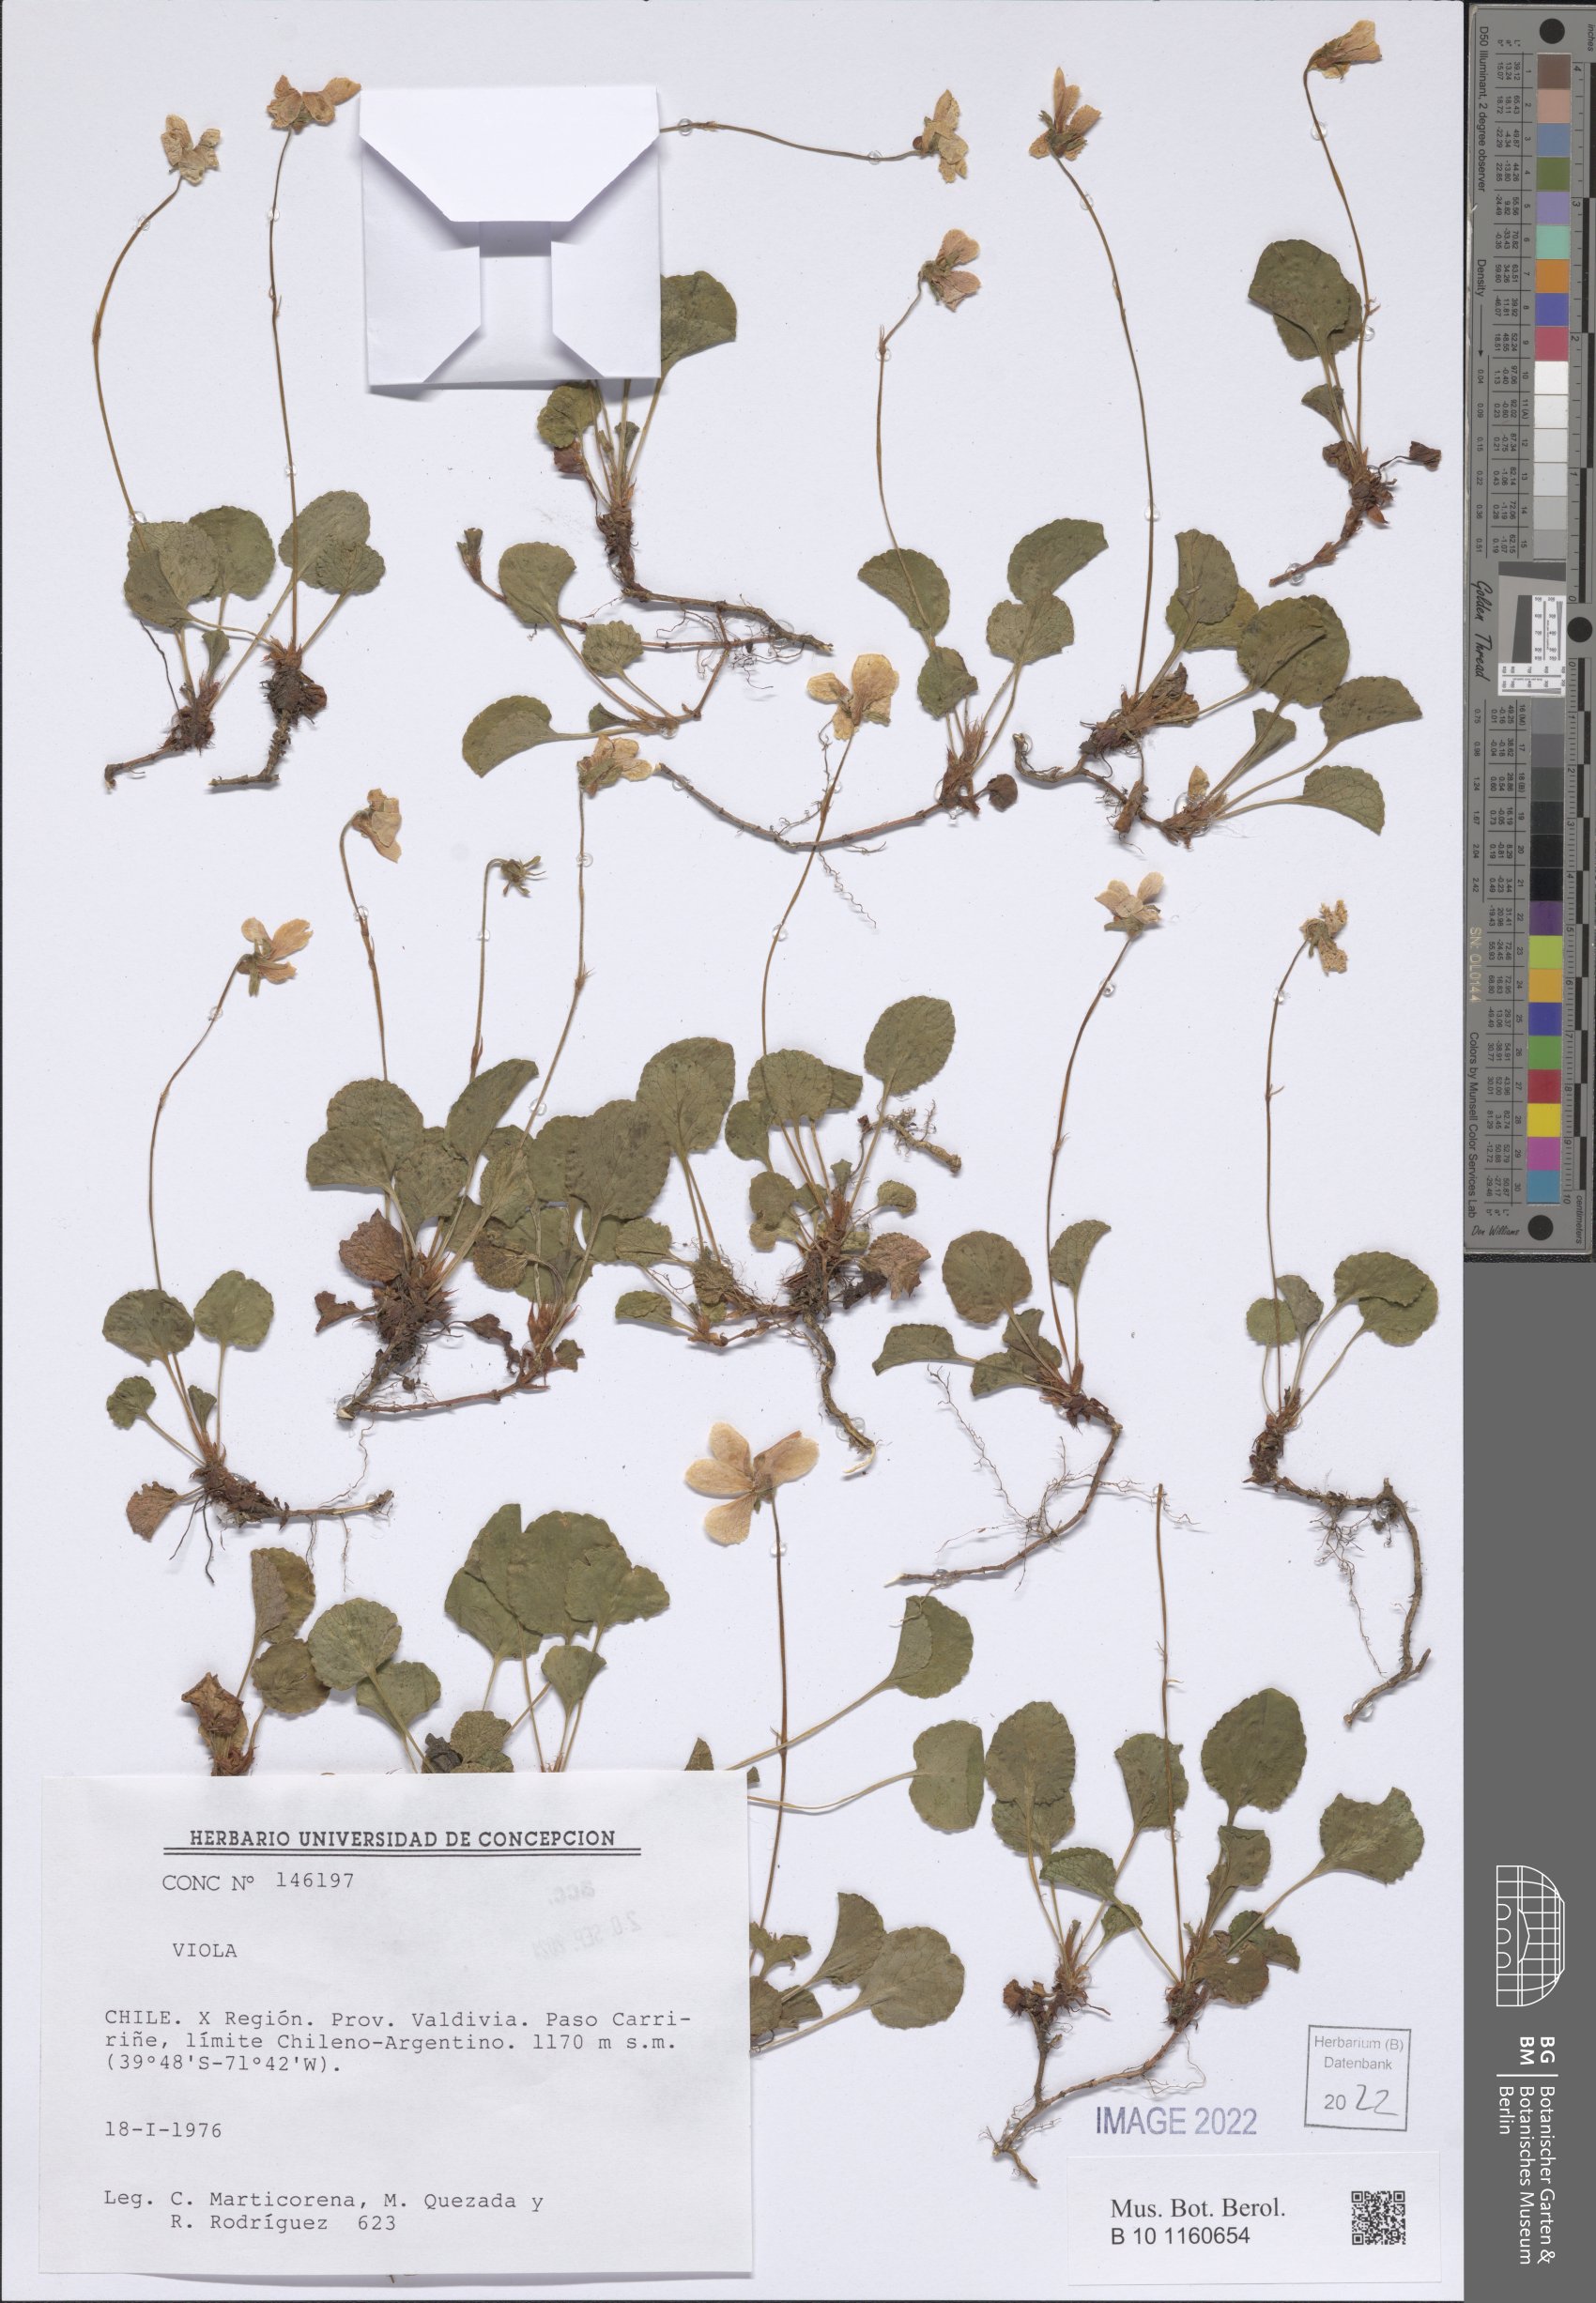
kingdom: Plantae
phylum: Tracheophyta
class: Magnoliopsida
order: Malpighiales
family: Violaceae
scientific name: Violaceae
